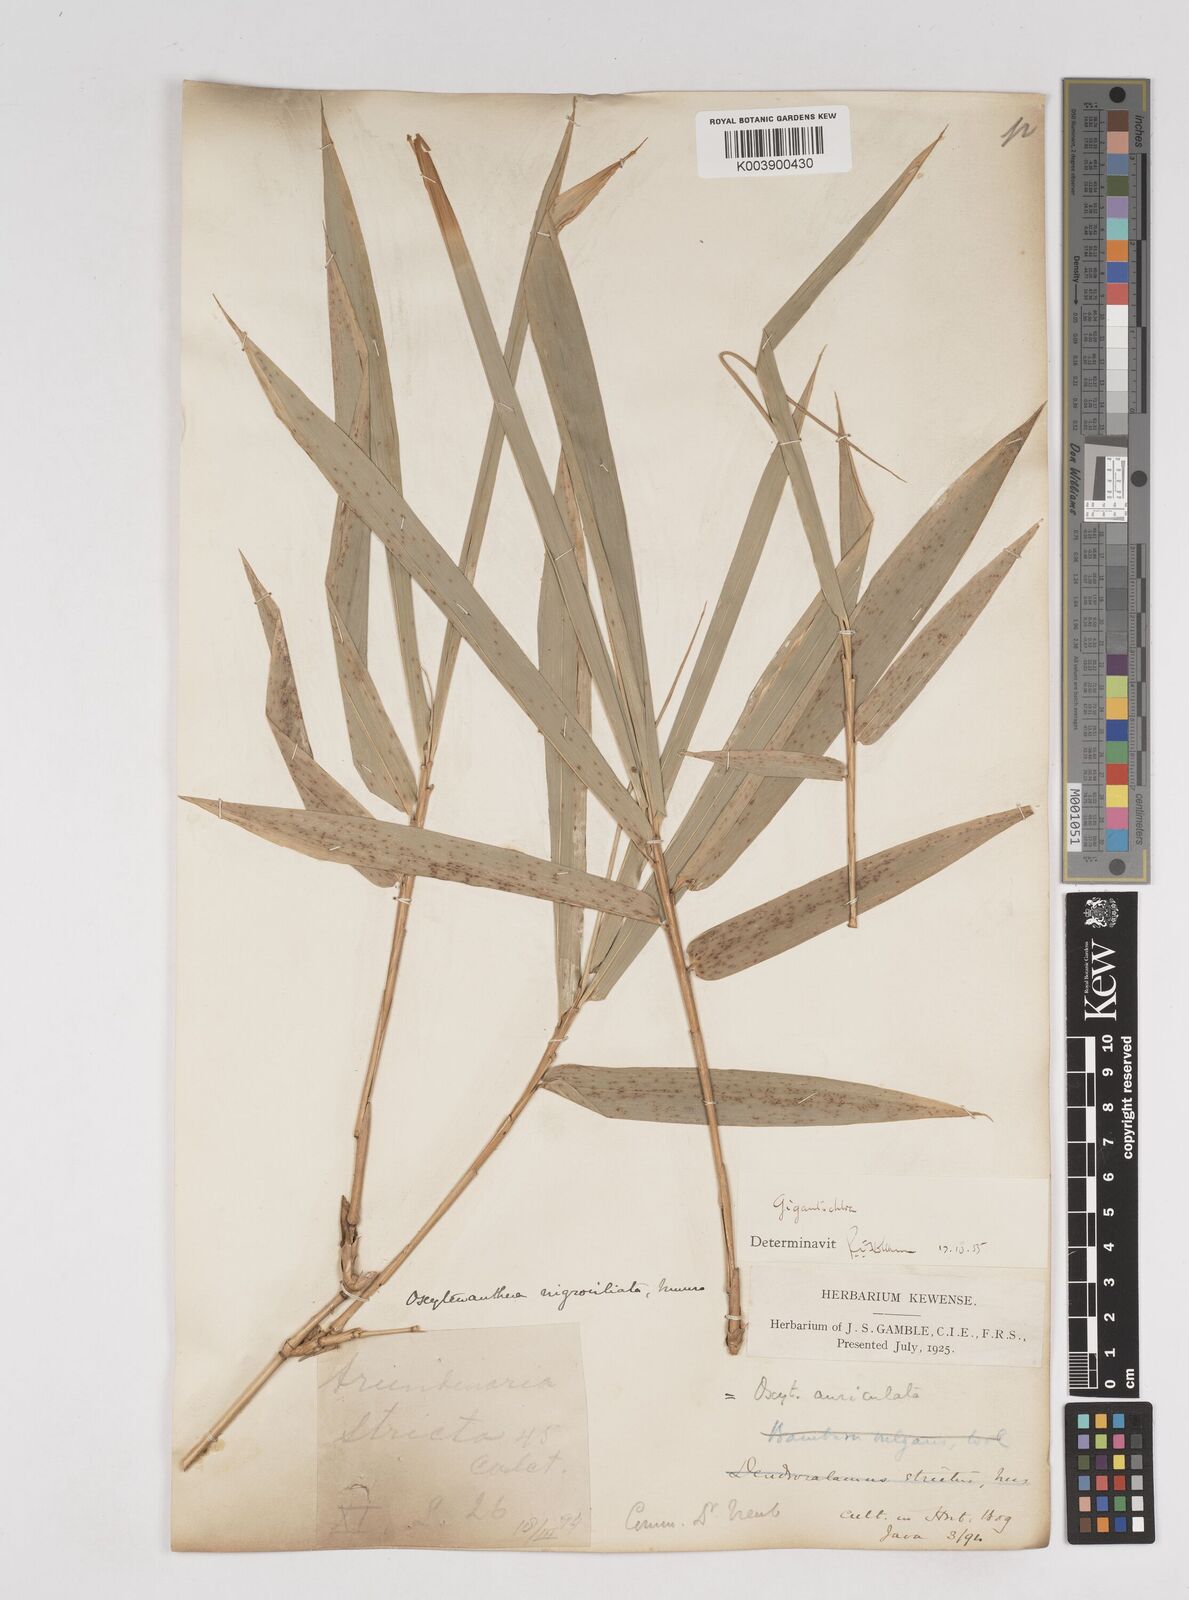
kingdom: Plantae
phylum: Tracheophyta
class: Liliopsida
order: Poales
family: Poaceae
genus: Gigantochloa
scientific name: Gigantochloa nigrociliata
